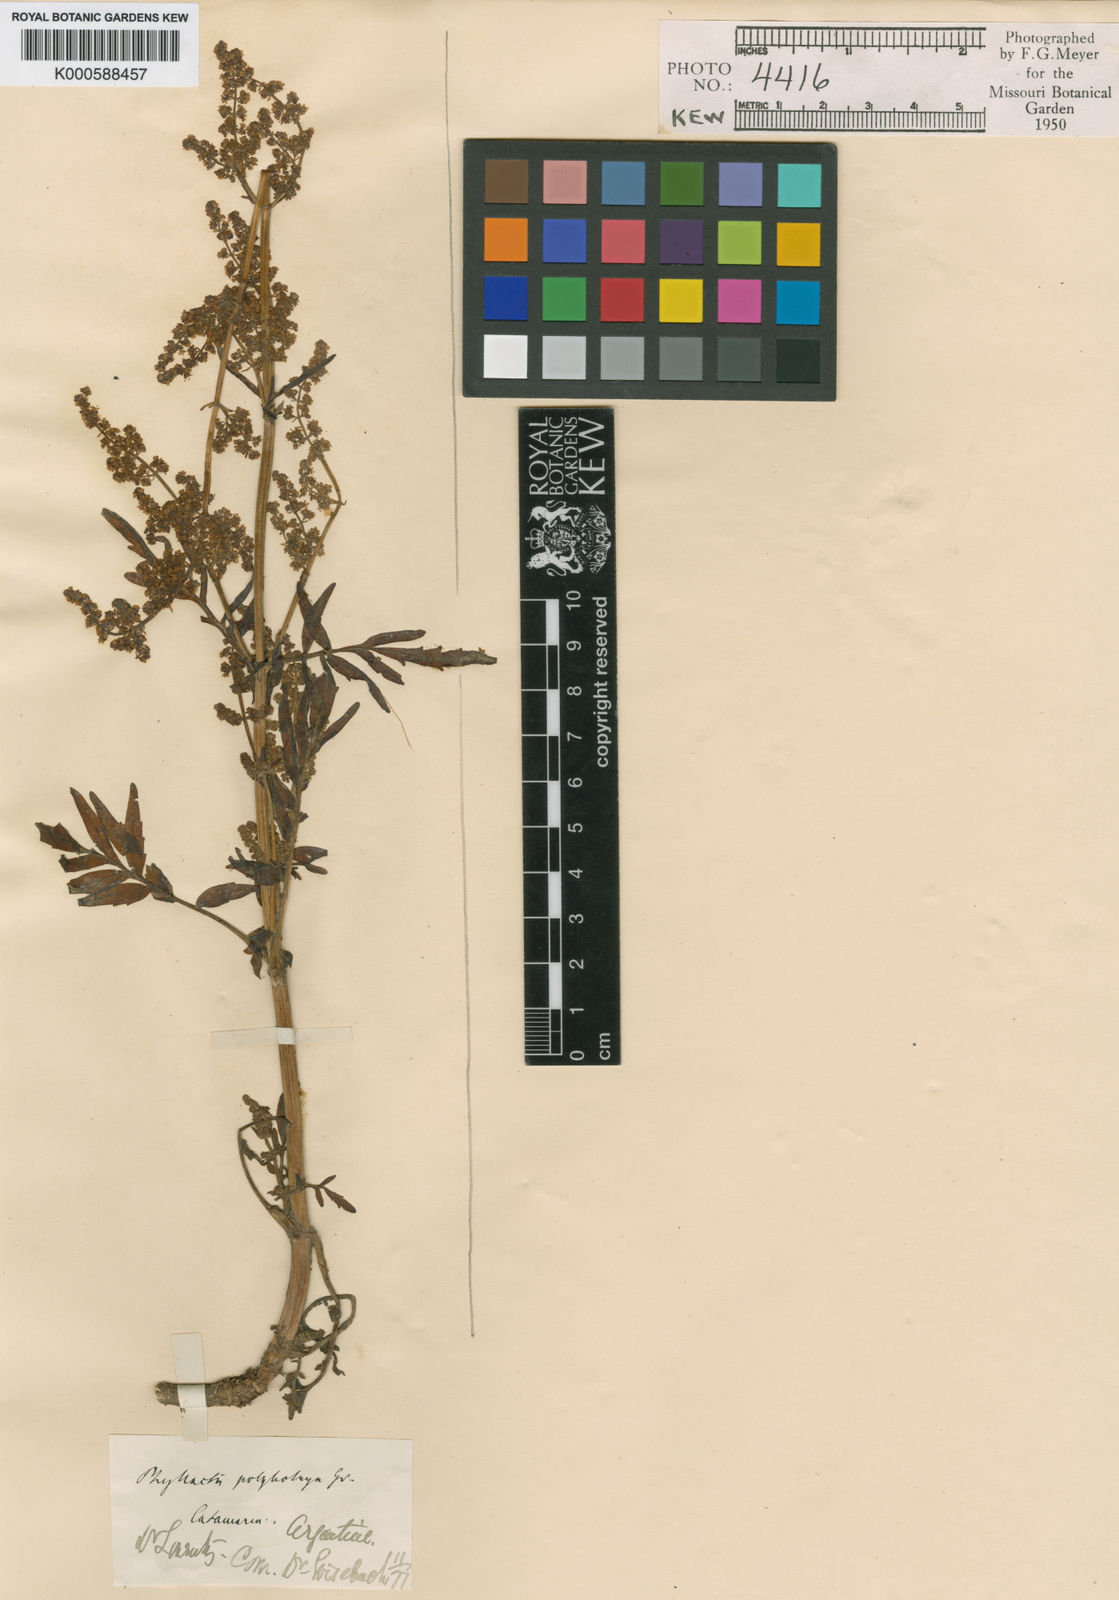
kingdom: Plantae
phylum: Tracheophyta
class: Magnoliopsida
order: Dipsacales
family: Caprifoliaceae
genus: Valeriana
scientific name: Valeriana
